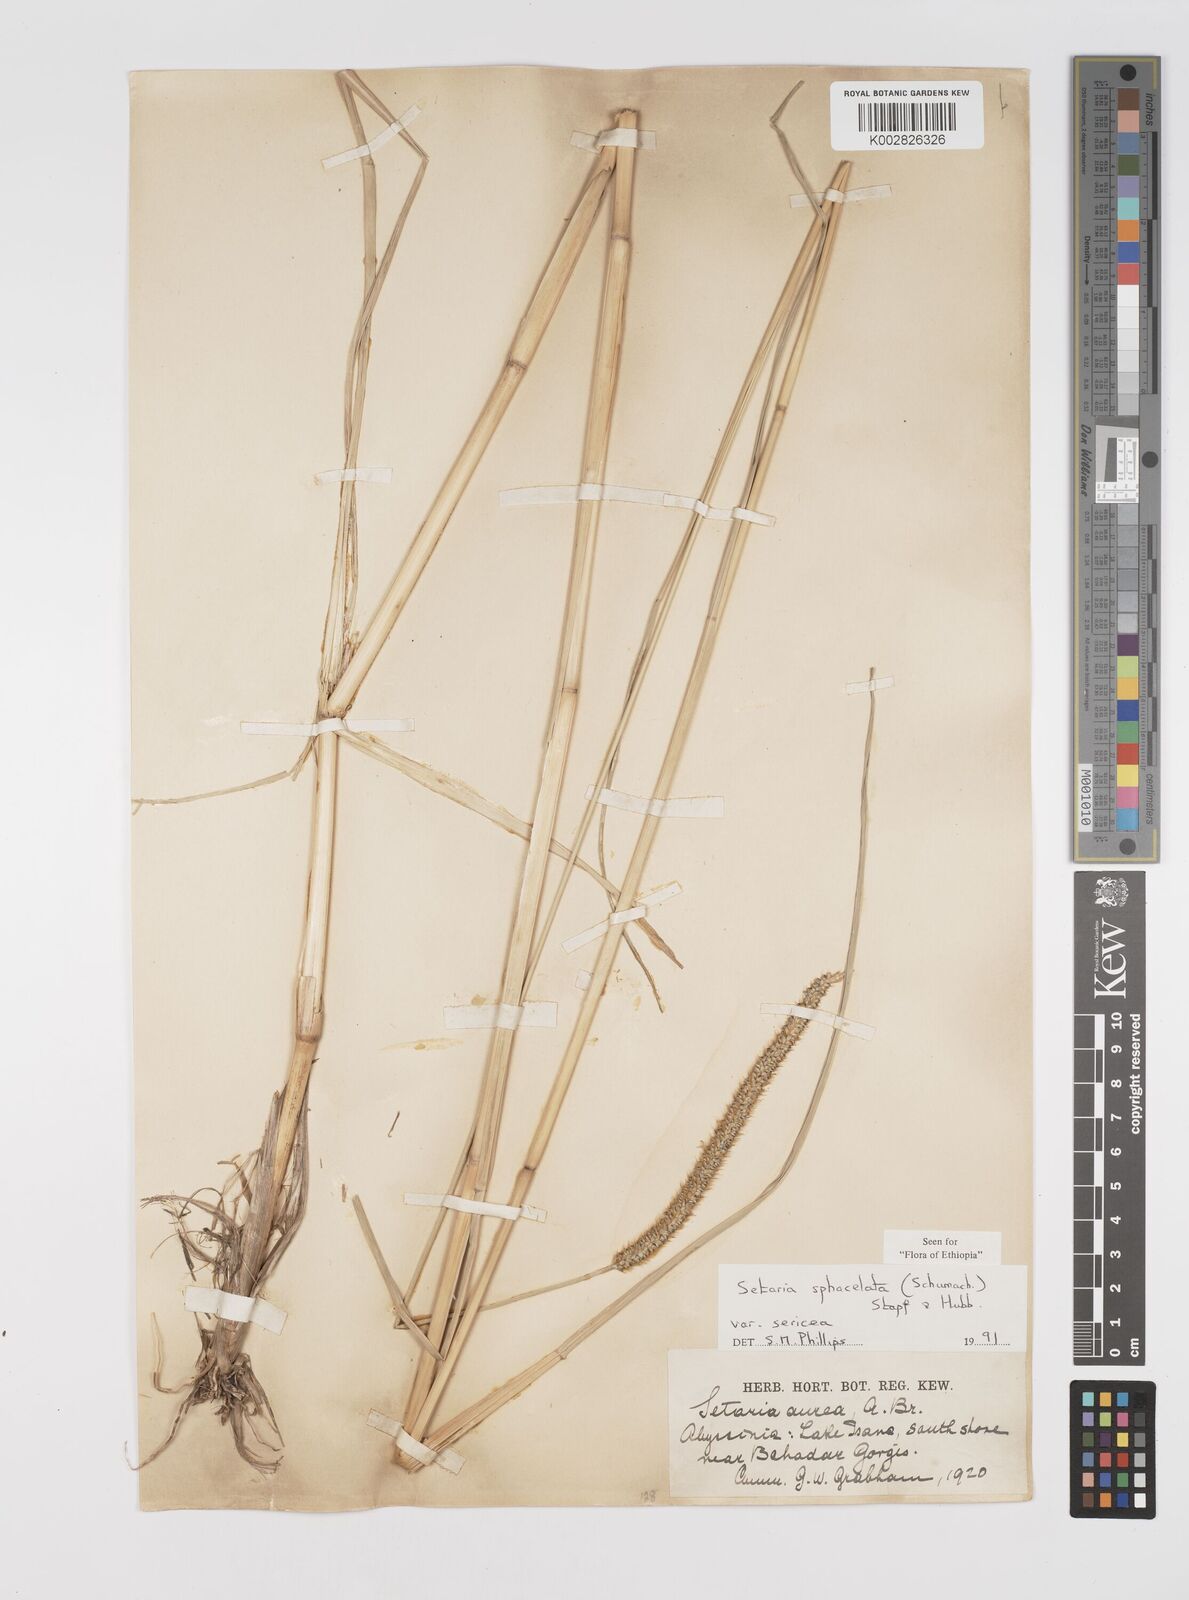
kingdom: Plantae
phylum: Tracheophyta
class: Liliopsida
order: Poales
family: Poaceae
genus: Setaria
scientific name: Setaria sphacelata
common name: African bristlegrass
